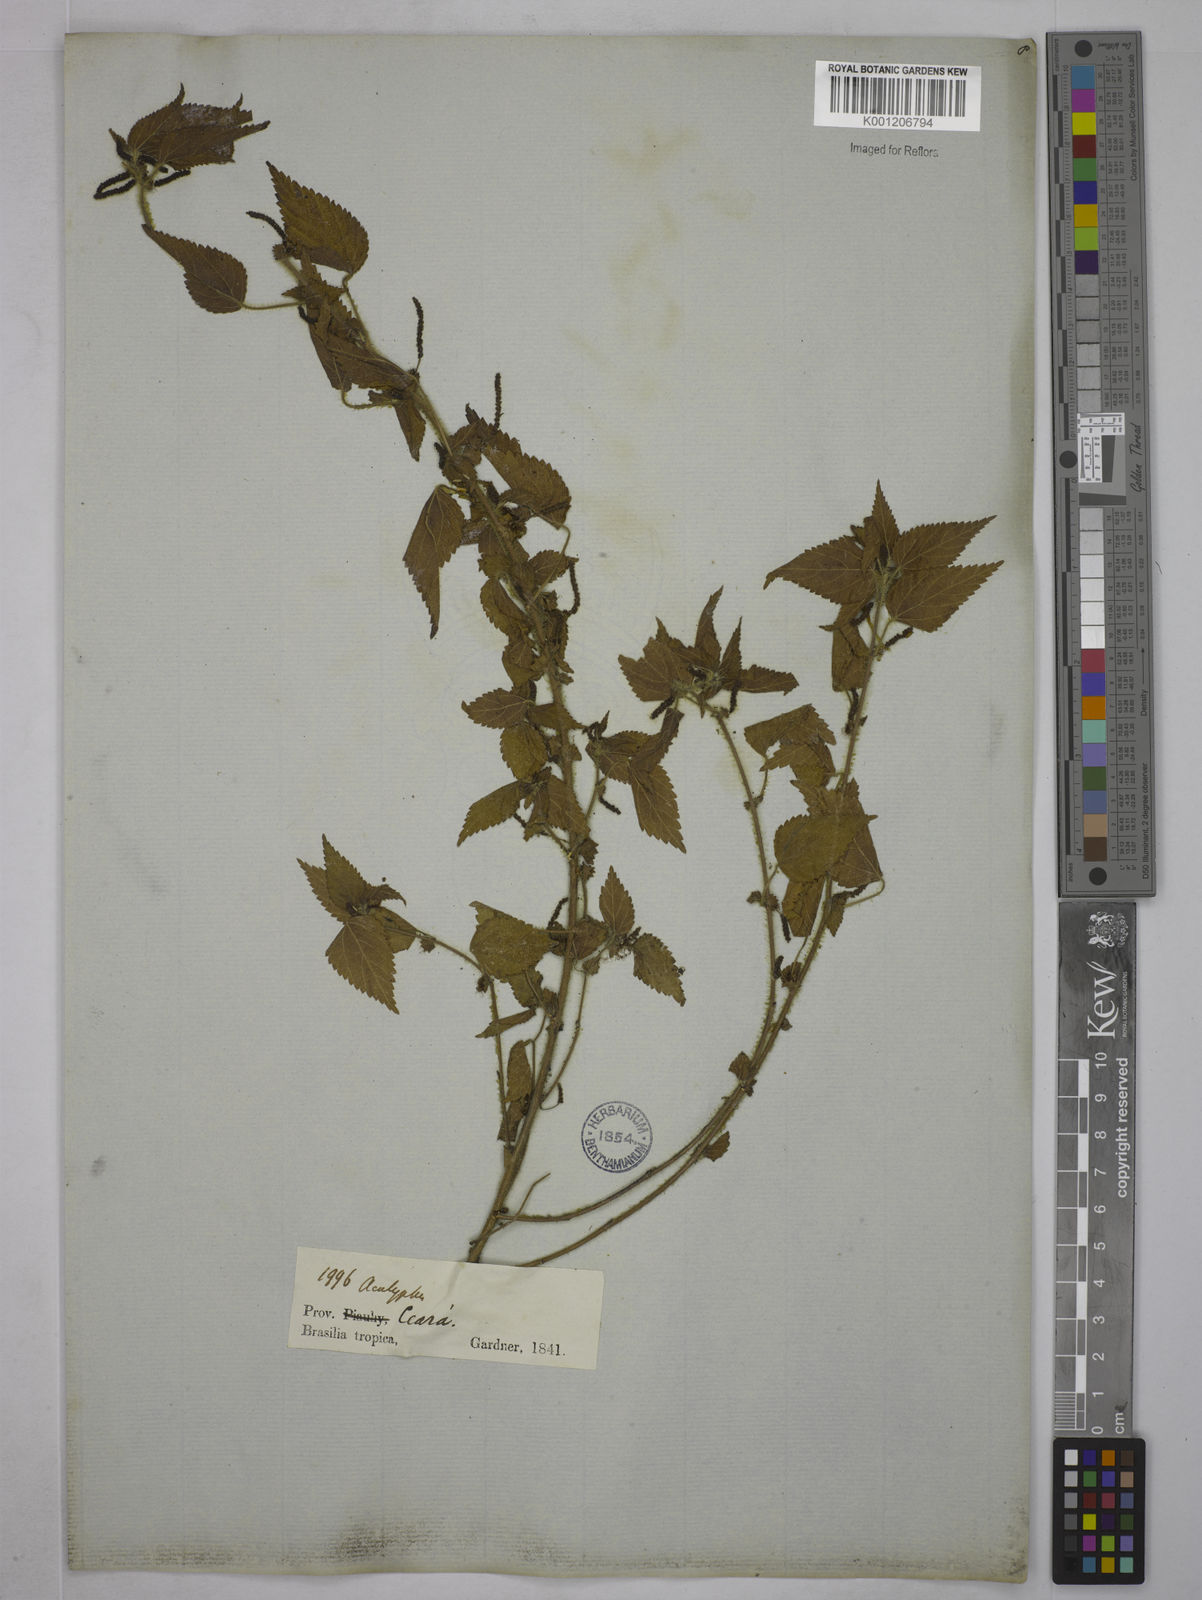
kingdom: Plantae
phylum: Tracheophyta
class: Magnoliopsida
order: Malpighiales
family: Euphorbiaceae
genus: Acalypha
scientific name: Acalypha
